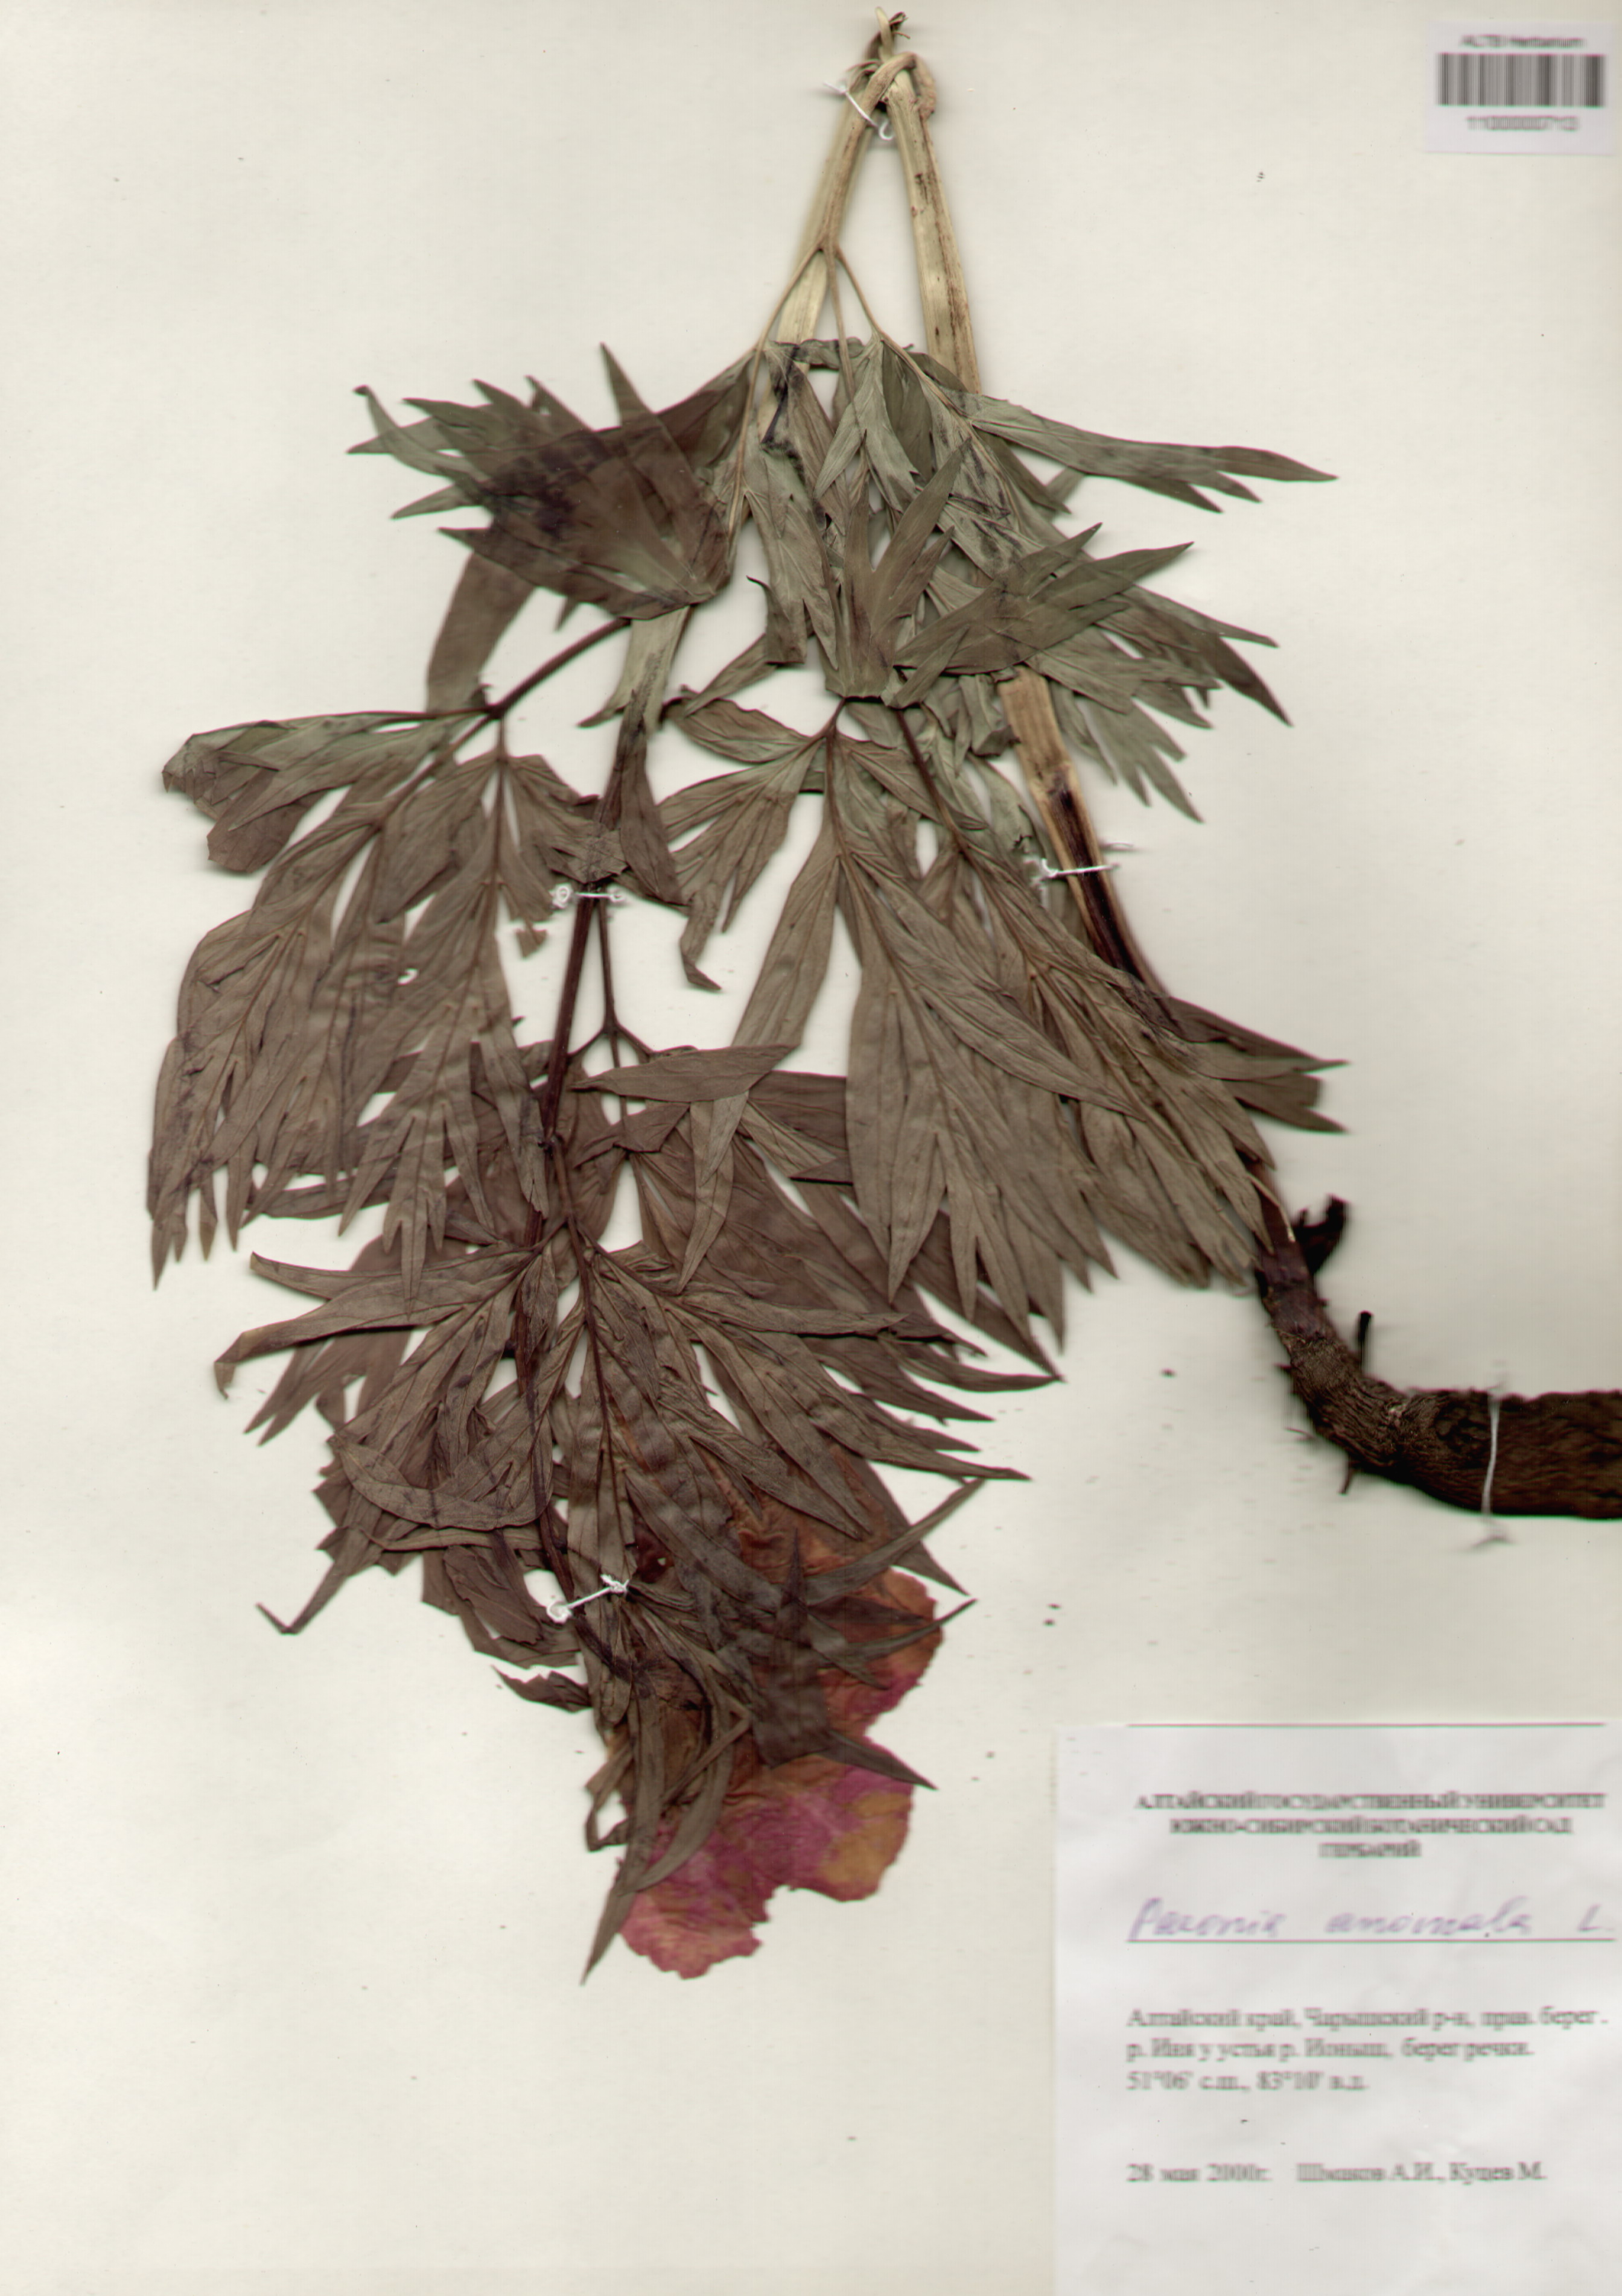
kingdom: Plantae
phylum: Tracheophyta
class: Magnoliopsida
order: Saxifragales
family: Paeoniaceae
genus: Paeonia
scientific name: Paeonia anomala
